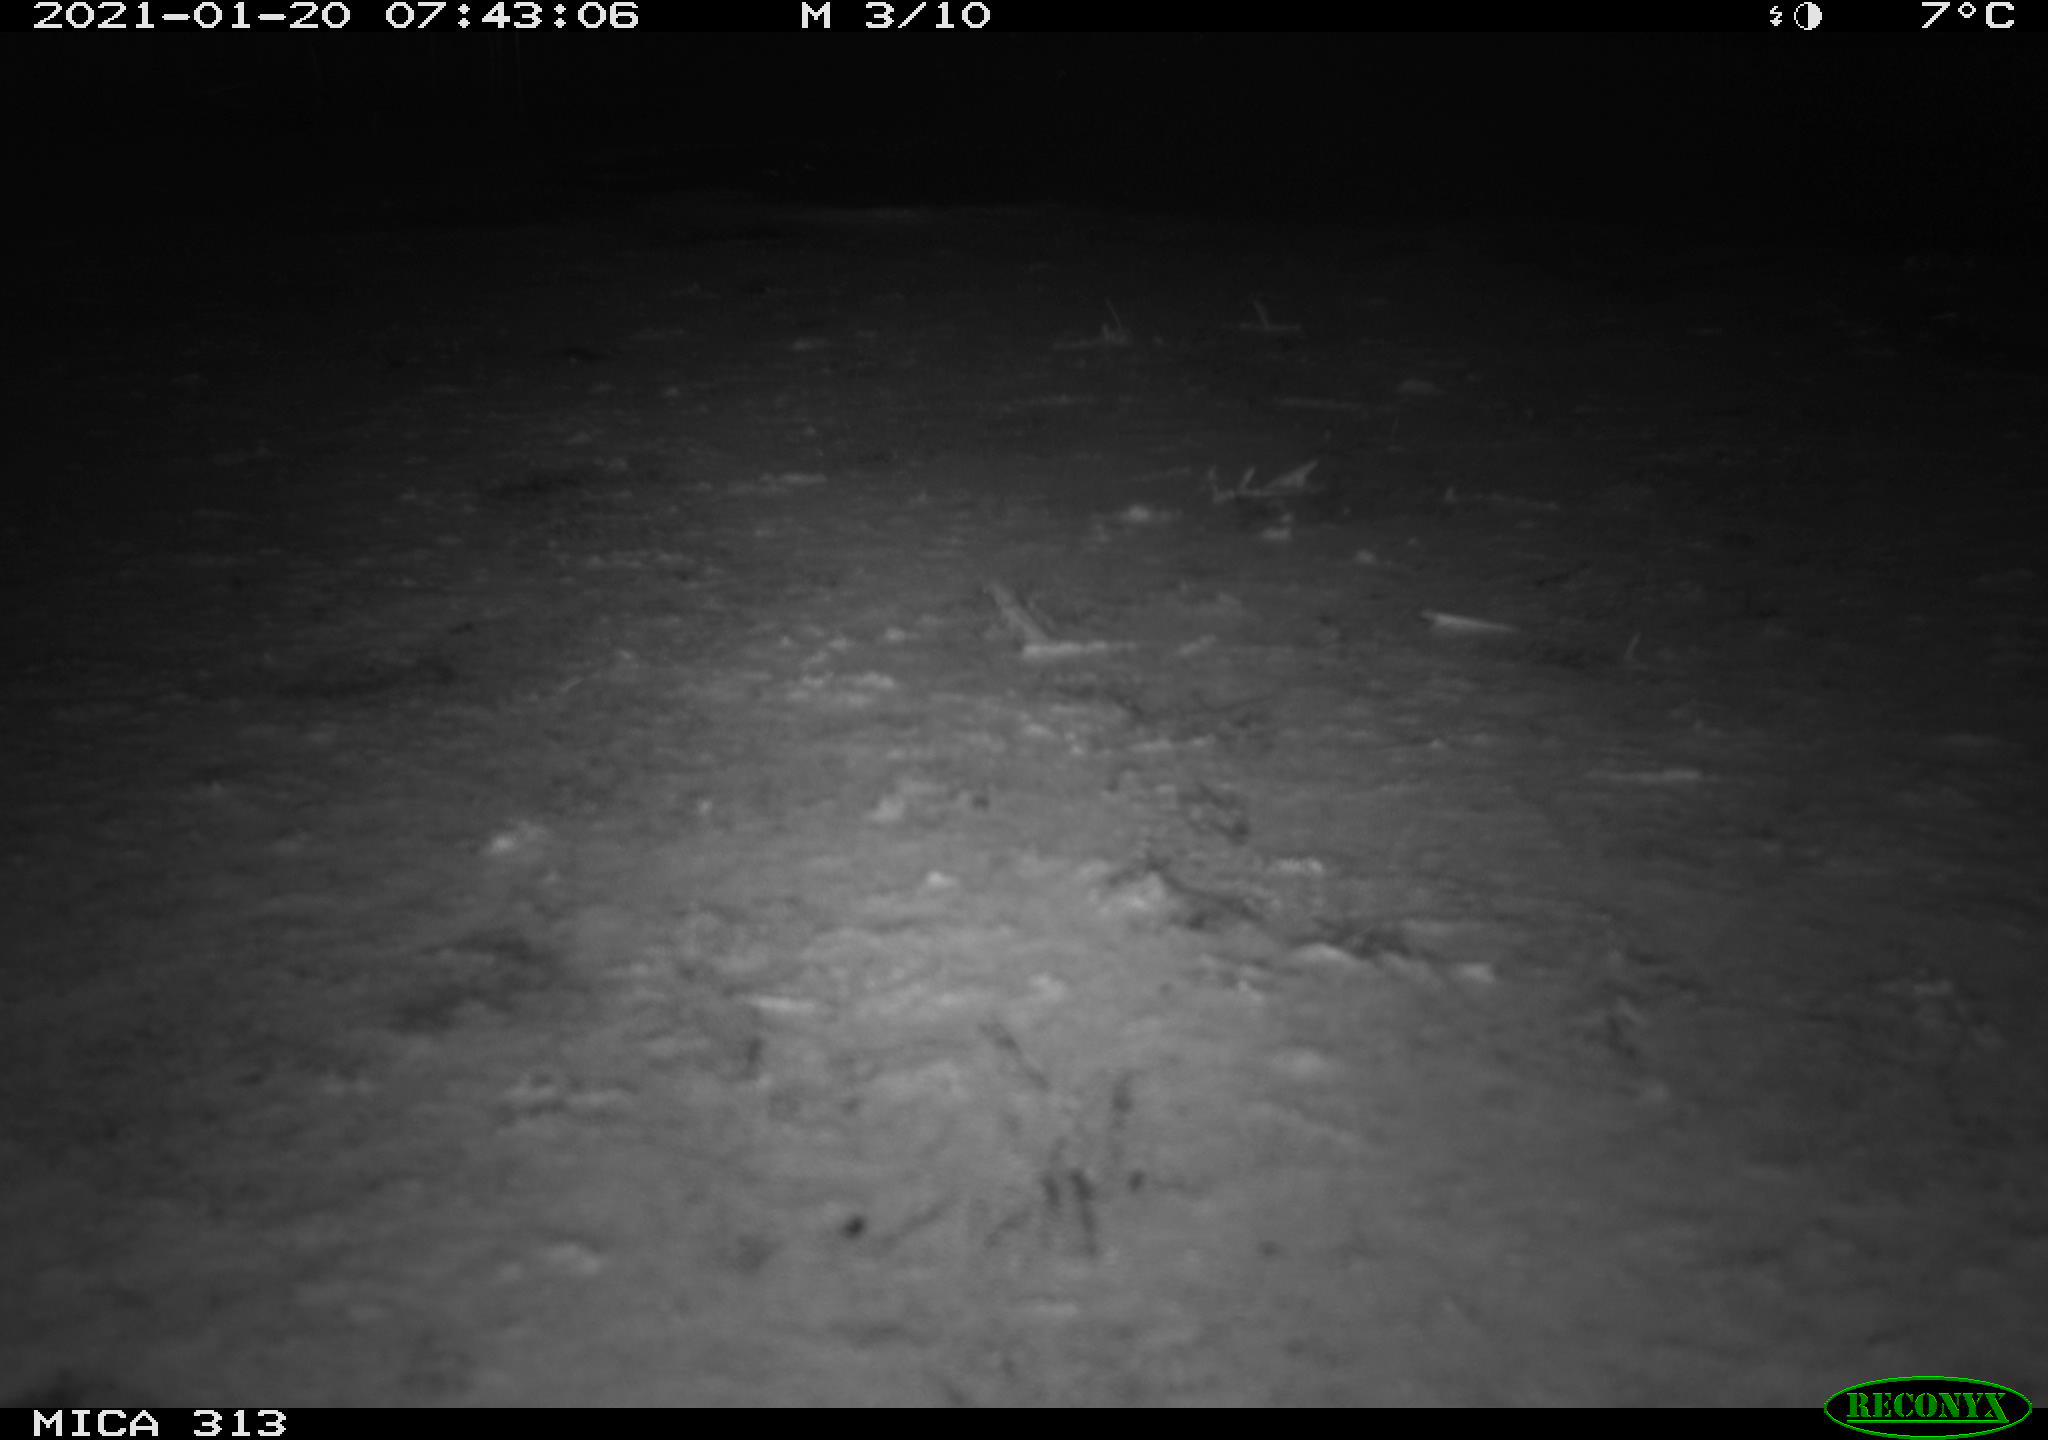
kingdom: Animalia
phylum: Chordata
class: Aves
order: Gruiformes
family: Rallidae
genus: Gallinula
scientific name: Gallinula chloropus
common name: Common moorhen
